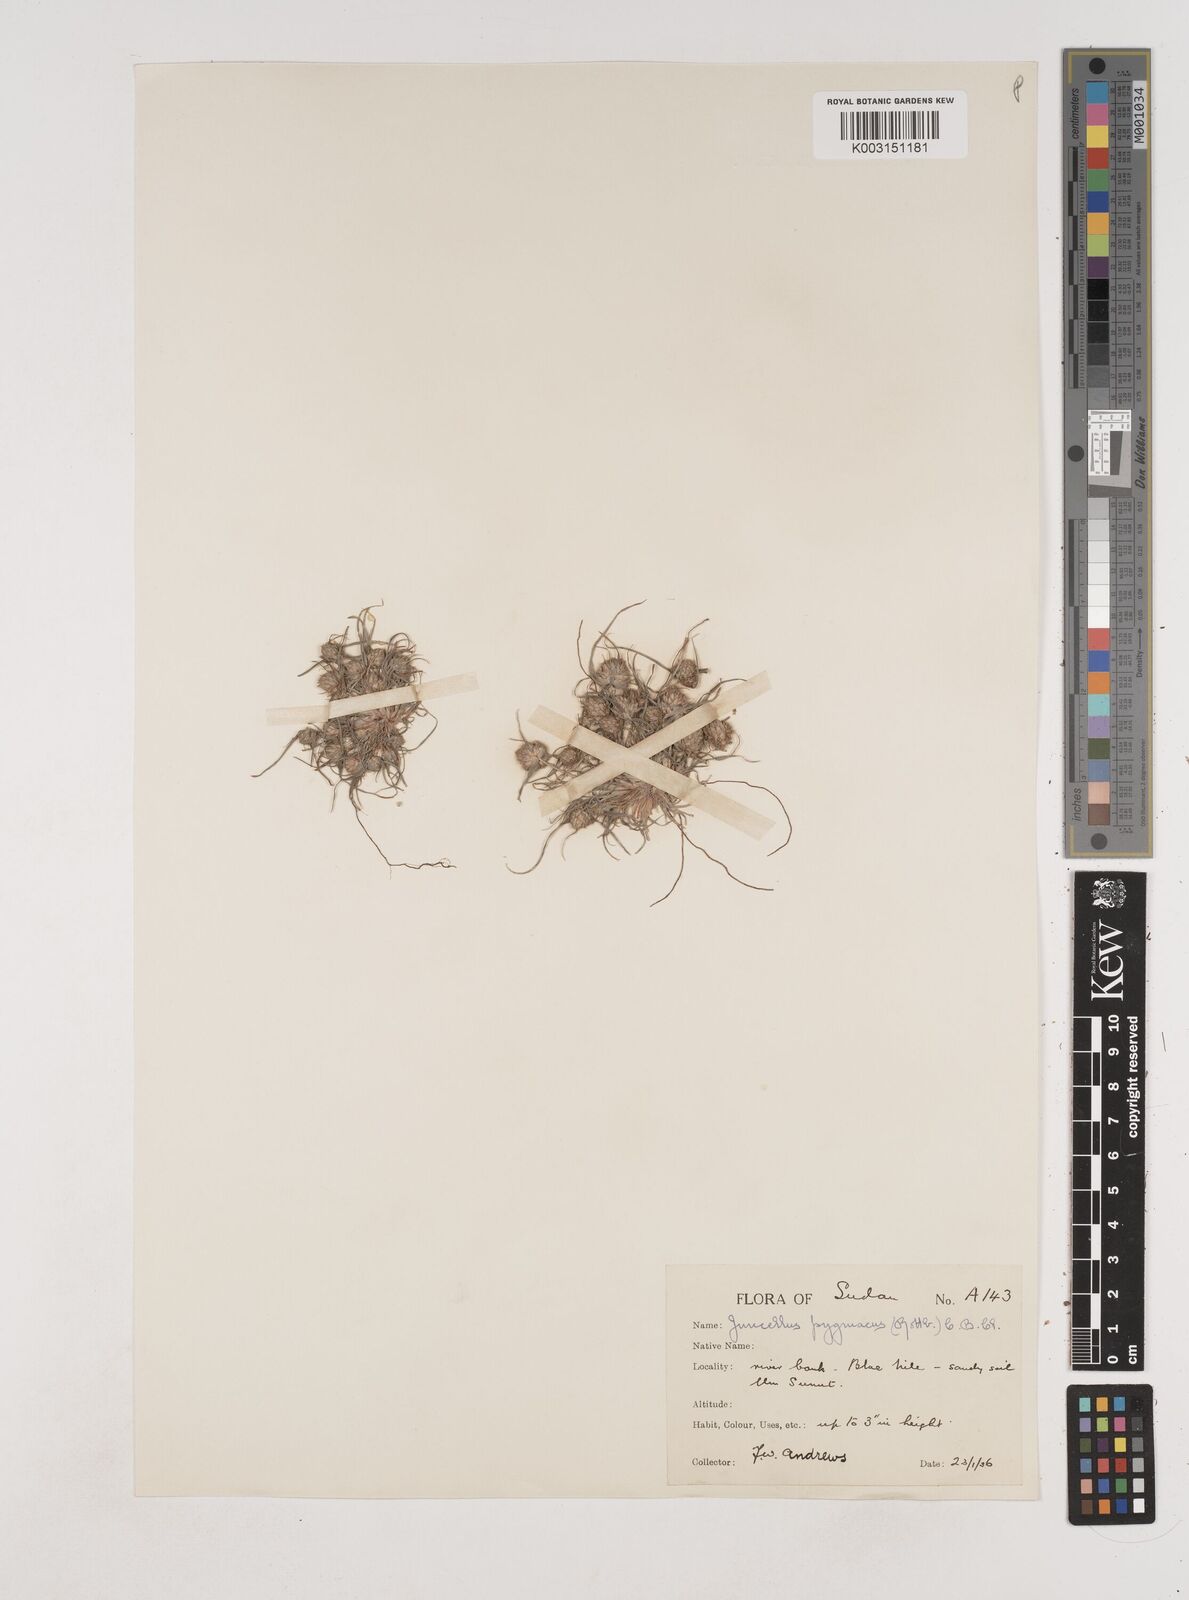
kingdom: Plantae
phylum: Tracheophyta
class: Liliopsida
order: Poales
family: Cyperaceae
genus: Cyperus
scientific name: Cyperus michelianus
